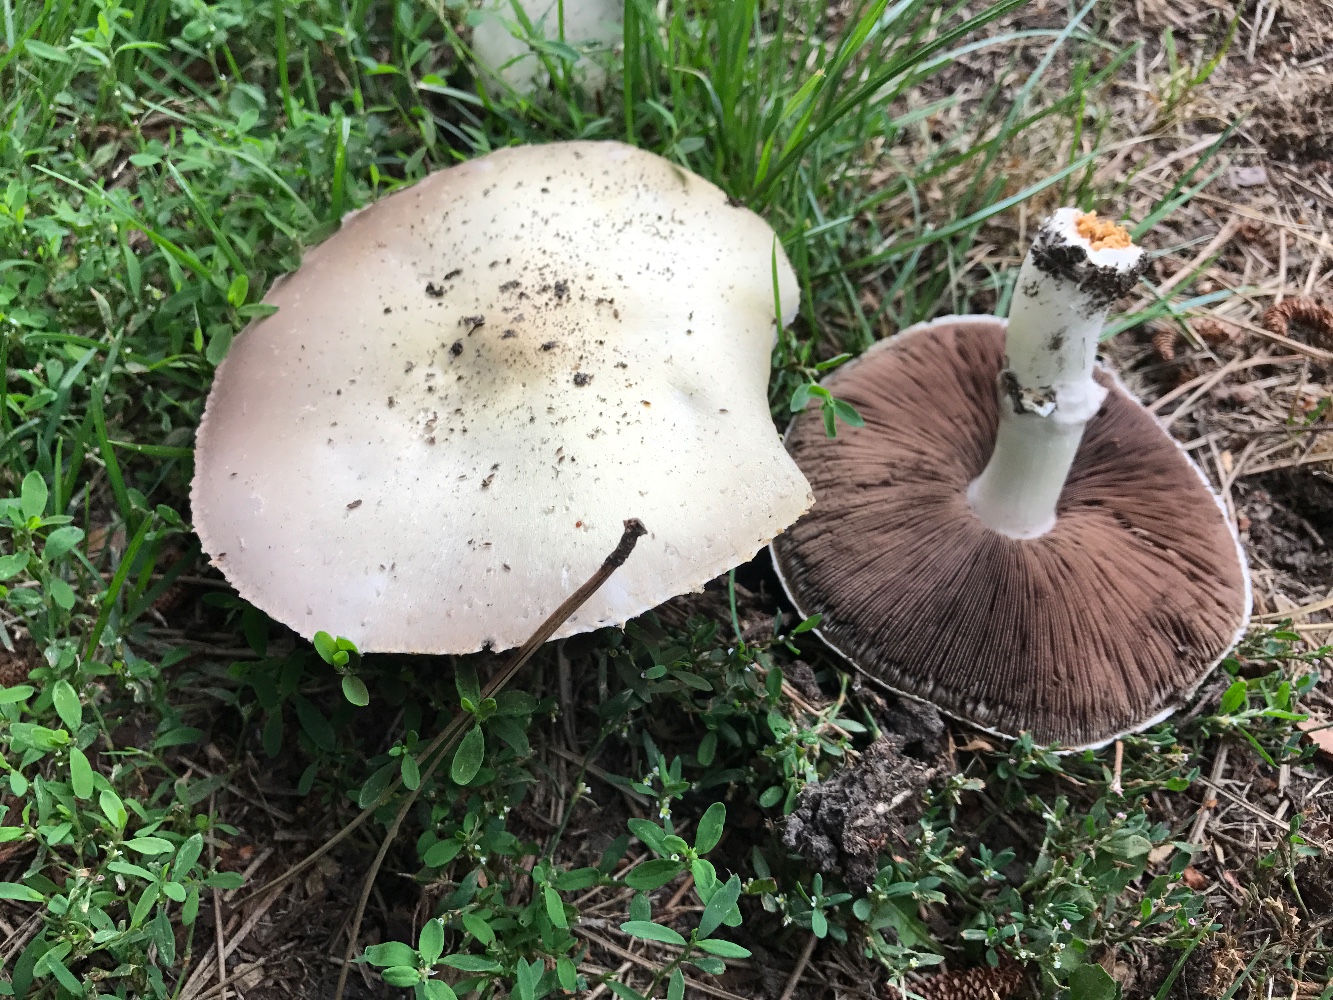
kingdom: Fungi
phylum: Basidiomycota
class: Agaricomycetes
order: Agaricales
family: Agaricaceae
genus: Agaricus
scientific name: Agaricus
